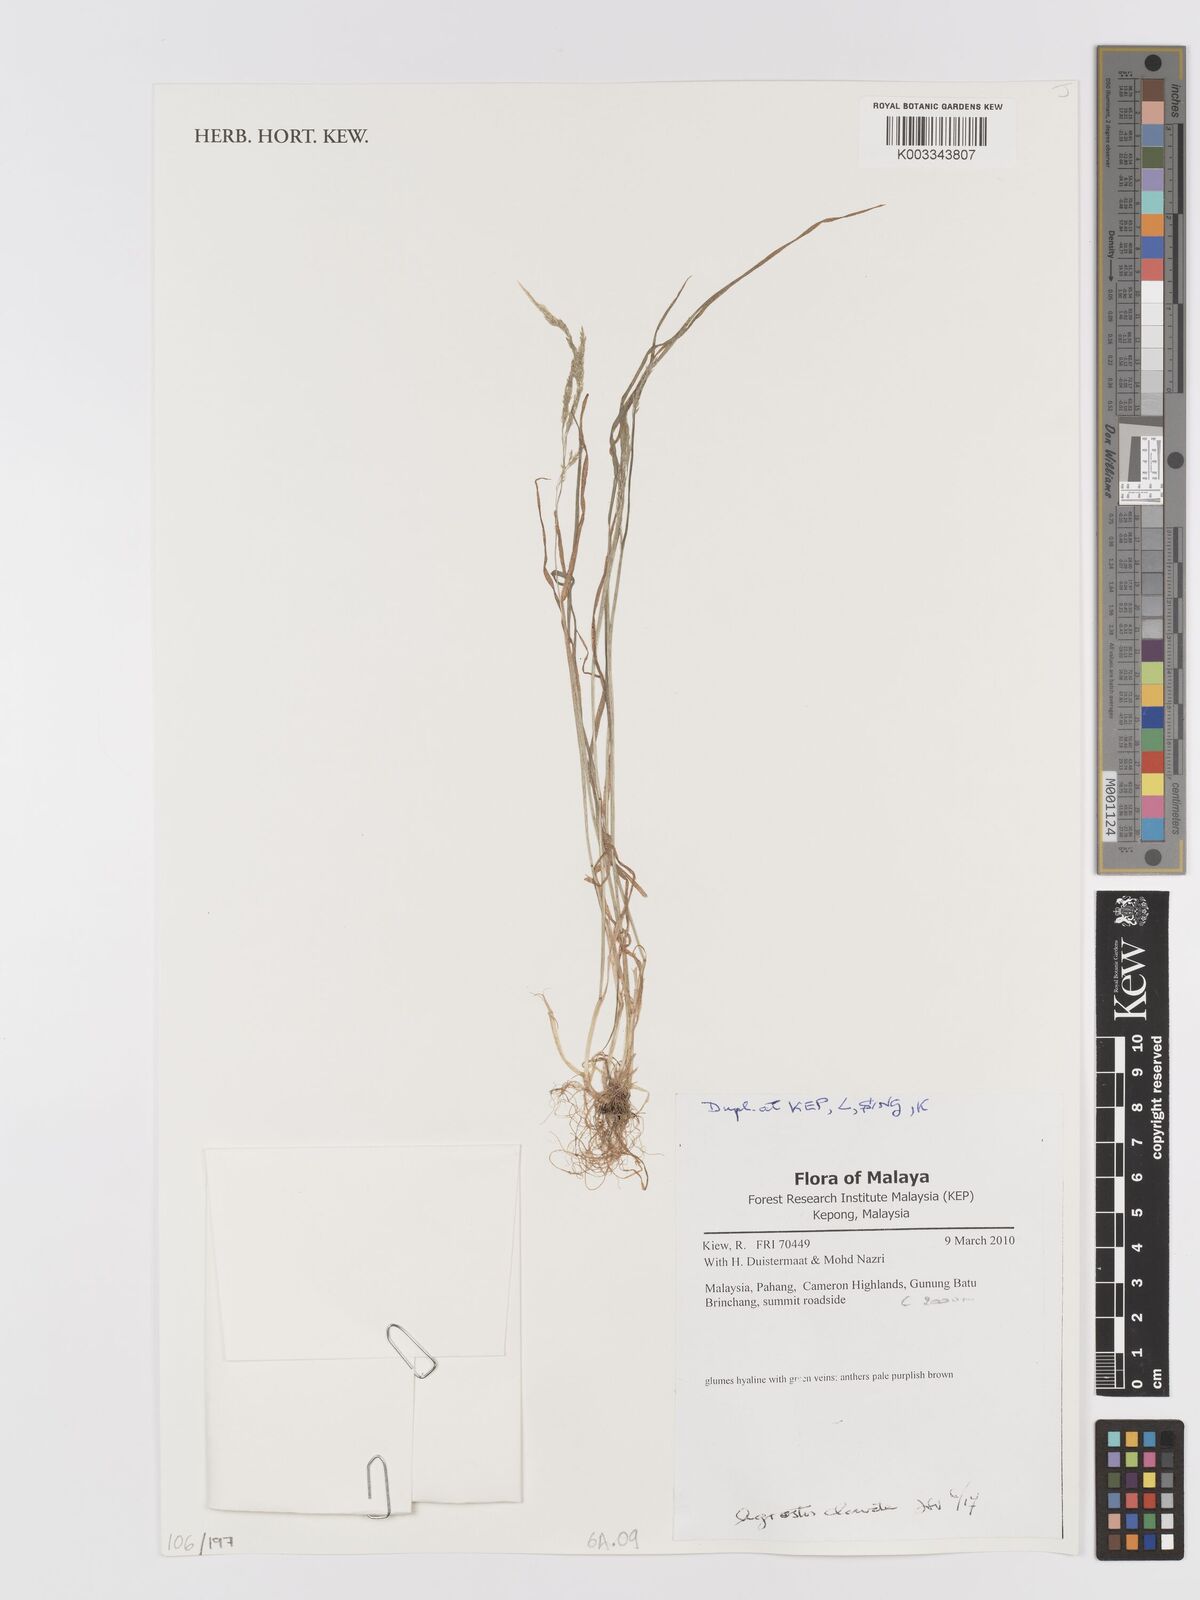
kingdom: Plantae
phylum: Tracheophyta
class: Liliopsida
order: Poales
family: Poaceae
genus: Lachnagrostis
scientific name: Lachnagrostis filiformis
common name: Bentgrass
